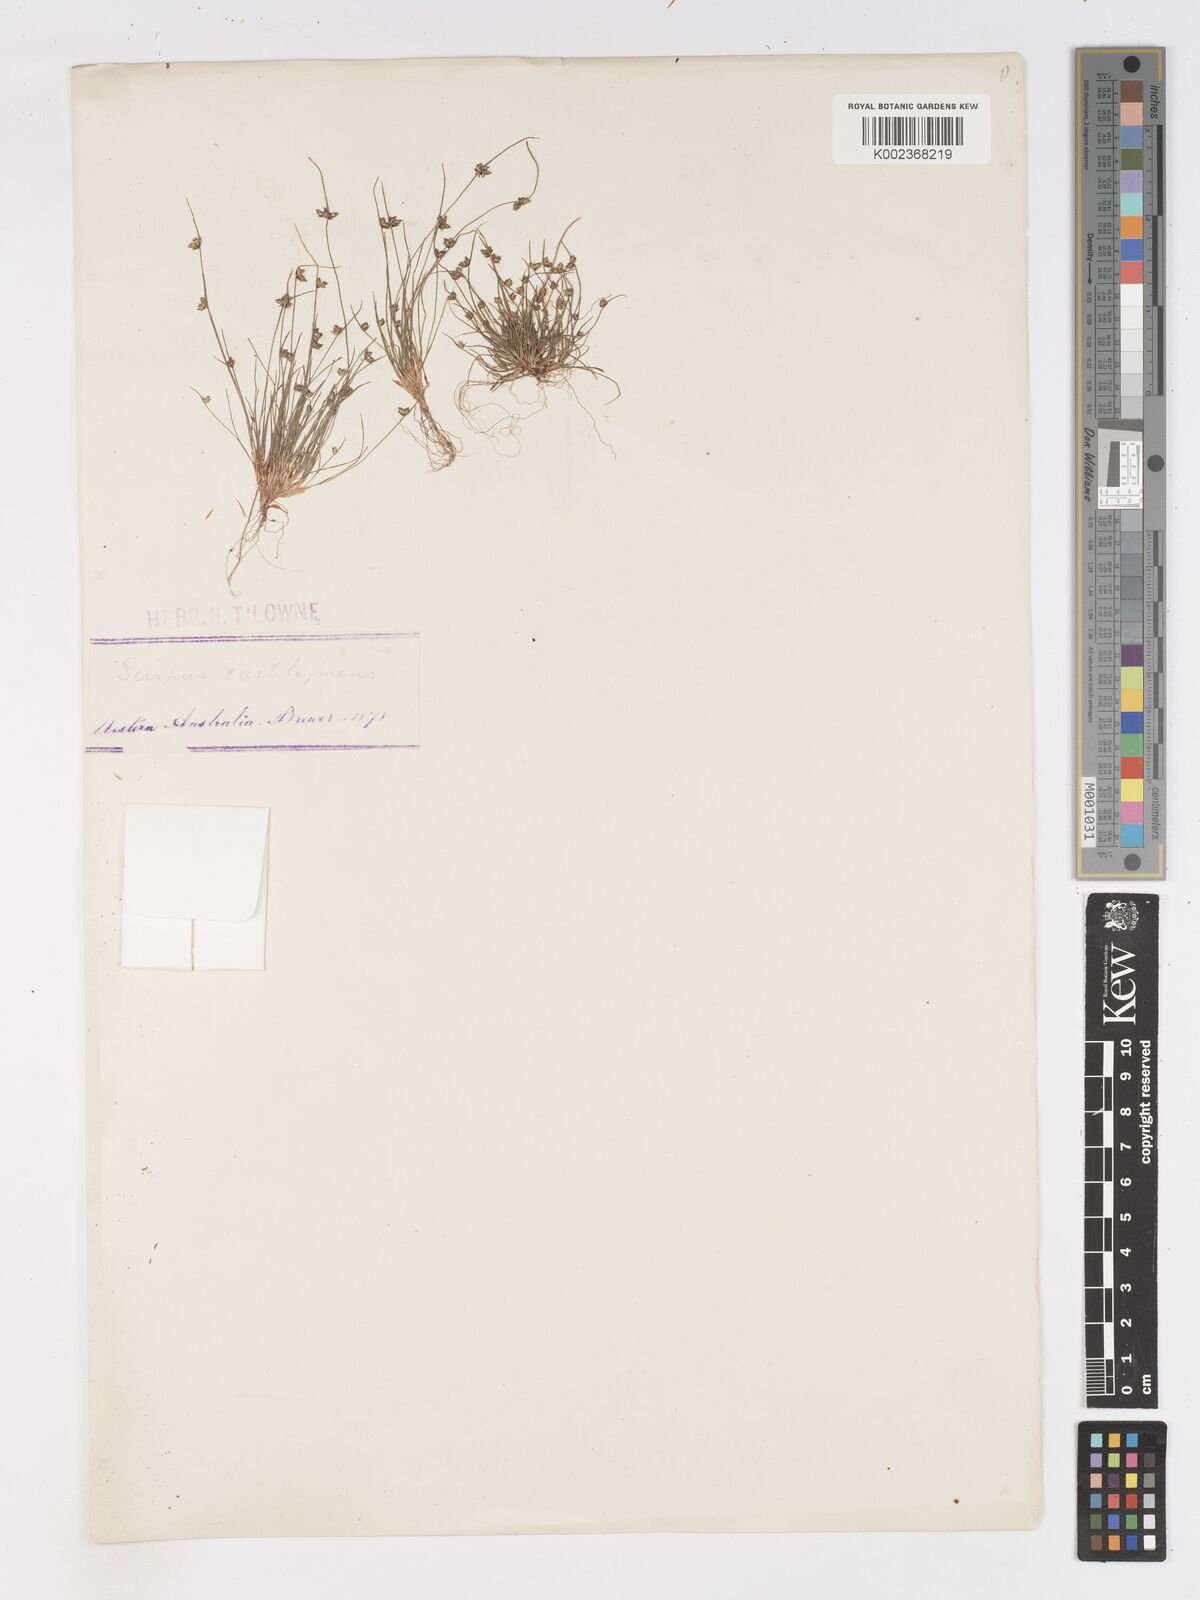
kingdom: Plantae
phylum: Tracheophyta
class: Liliopsida
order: Poales
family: Cyperaceae
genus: Isolepis
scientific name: Isolepis marginata
